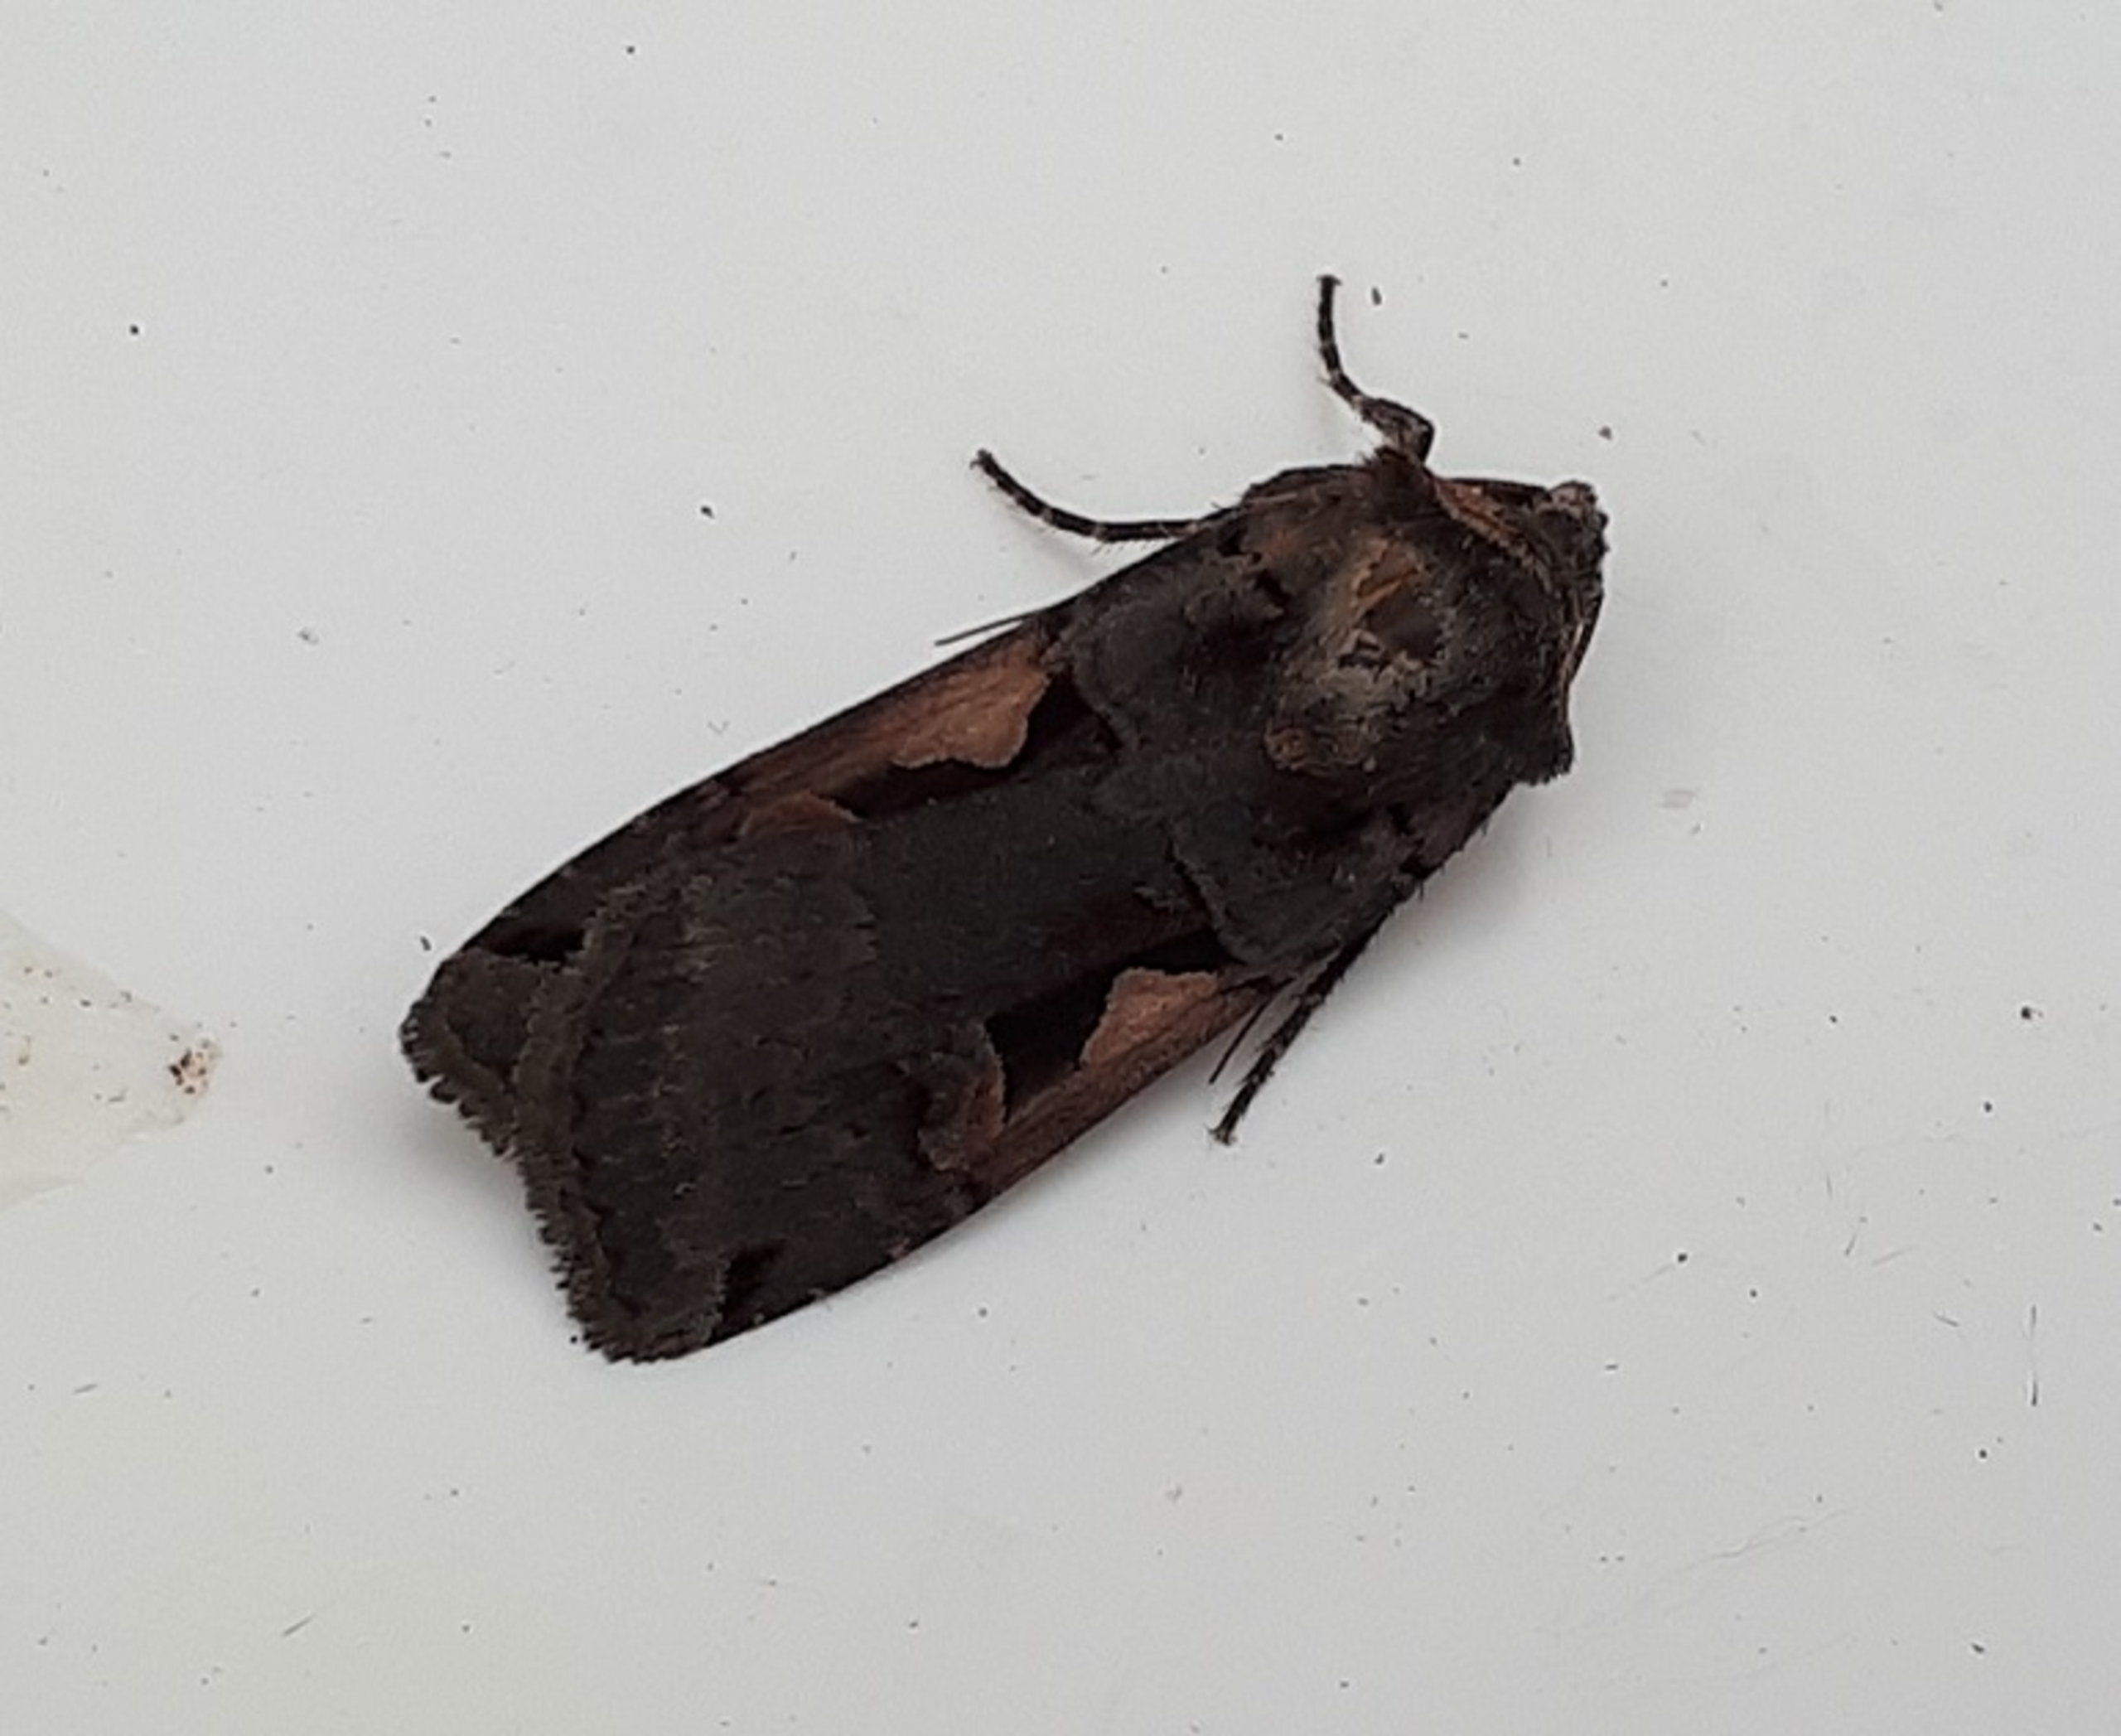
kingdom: Animalia
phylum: Arthropoda
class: Insecta
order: Lepidoptera
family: Noctuidae
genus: Xestia
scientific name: Xestia c-nigrum
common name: Det sorte c
